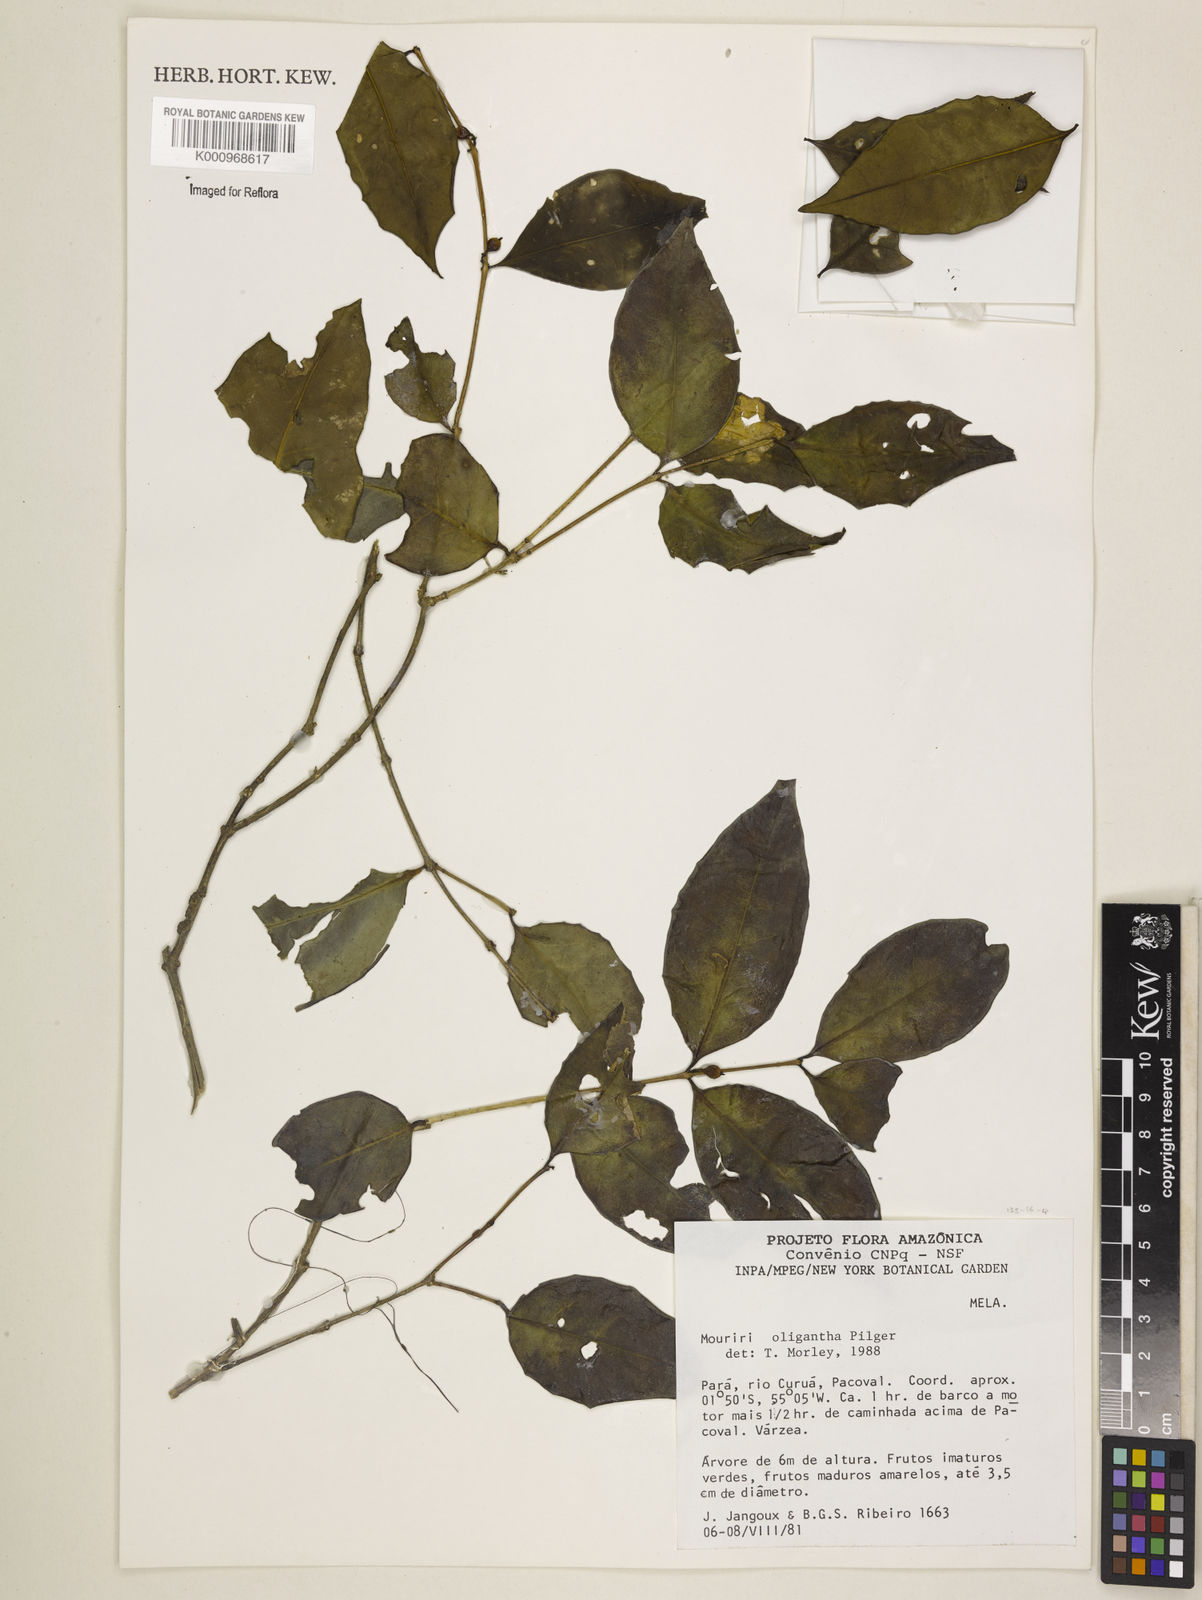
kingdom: Plantae
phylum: Tracheophyta
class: Magnoliopsida
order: Myrtales
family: Melastomataceae
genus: Mouriri
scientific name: Mouriri oligantha
